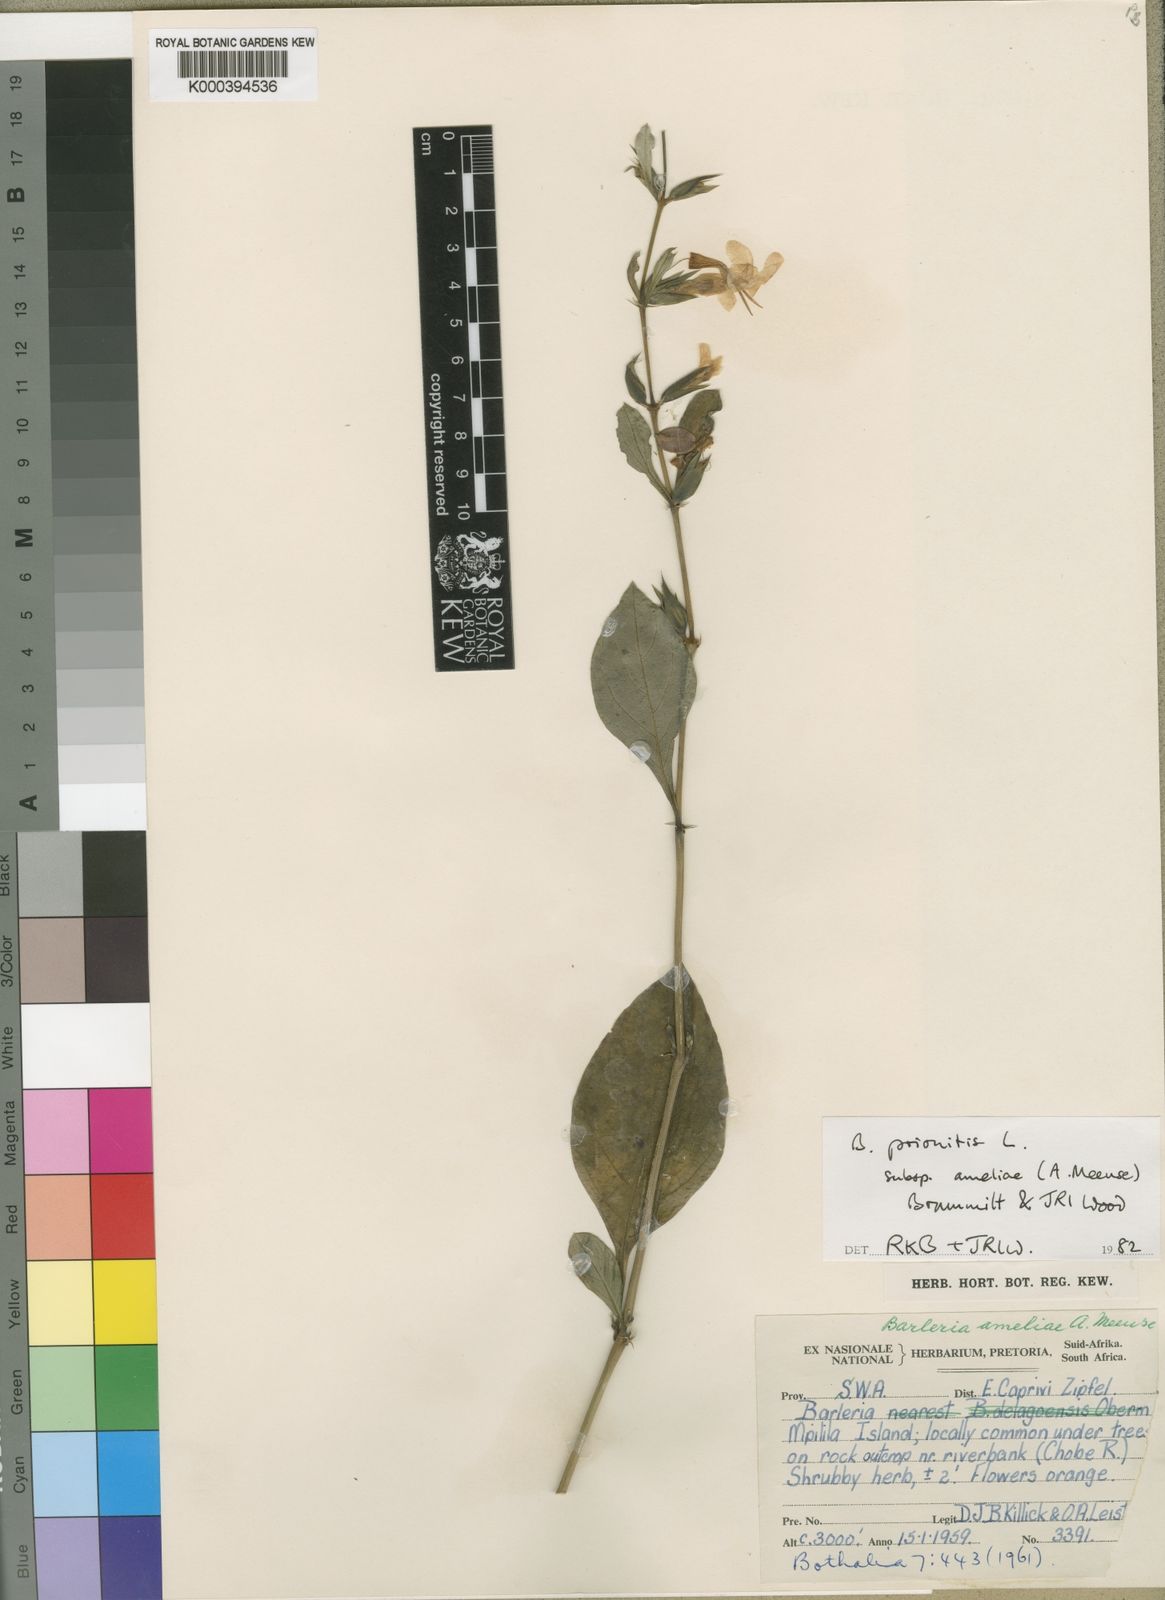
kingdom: Plantae
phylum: Tracheophyta
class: Magnoliopsida
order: Lamiales
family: Acanthaceae
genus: Barleria
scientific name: Barleria ameliae
